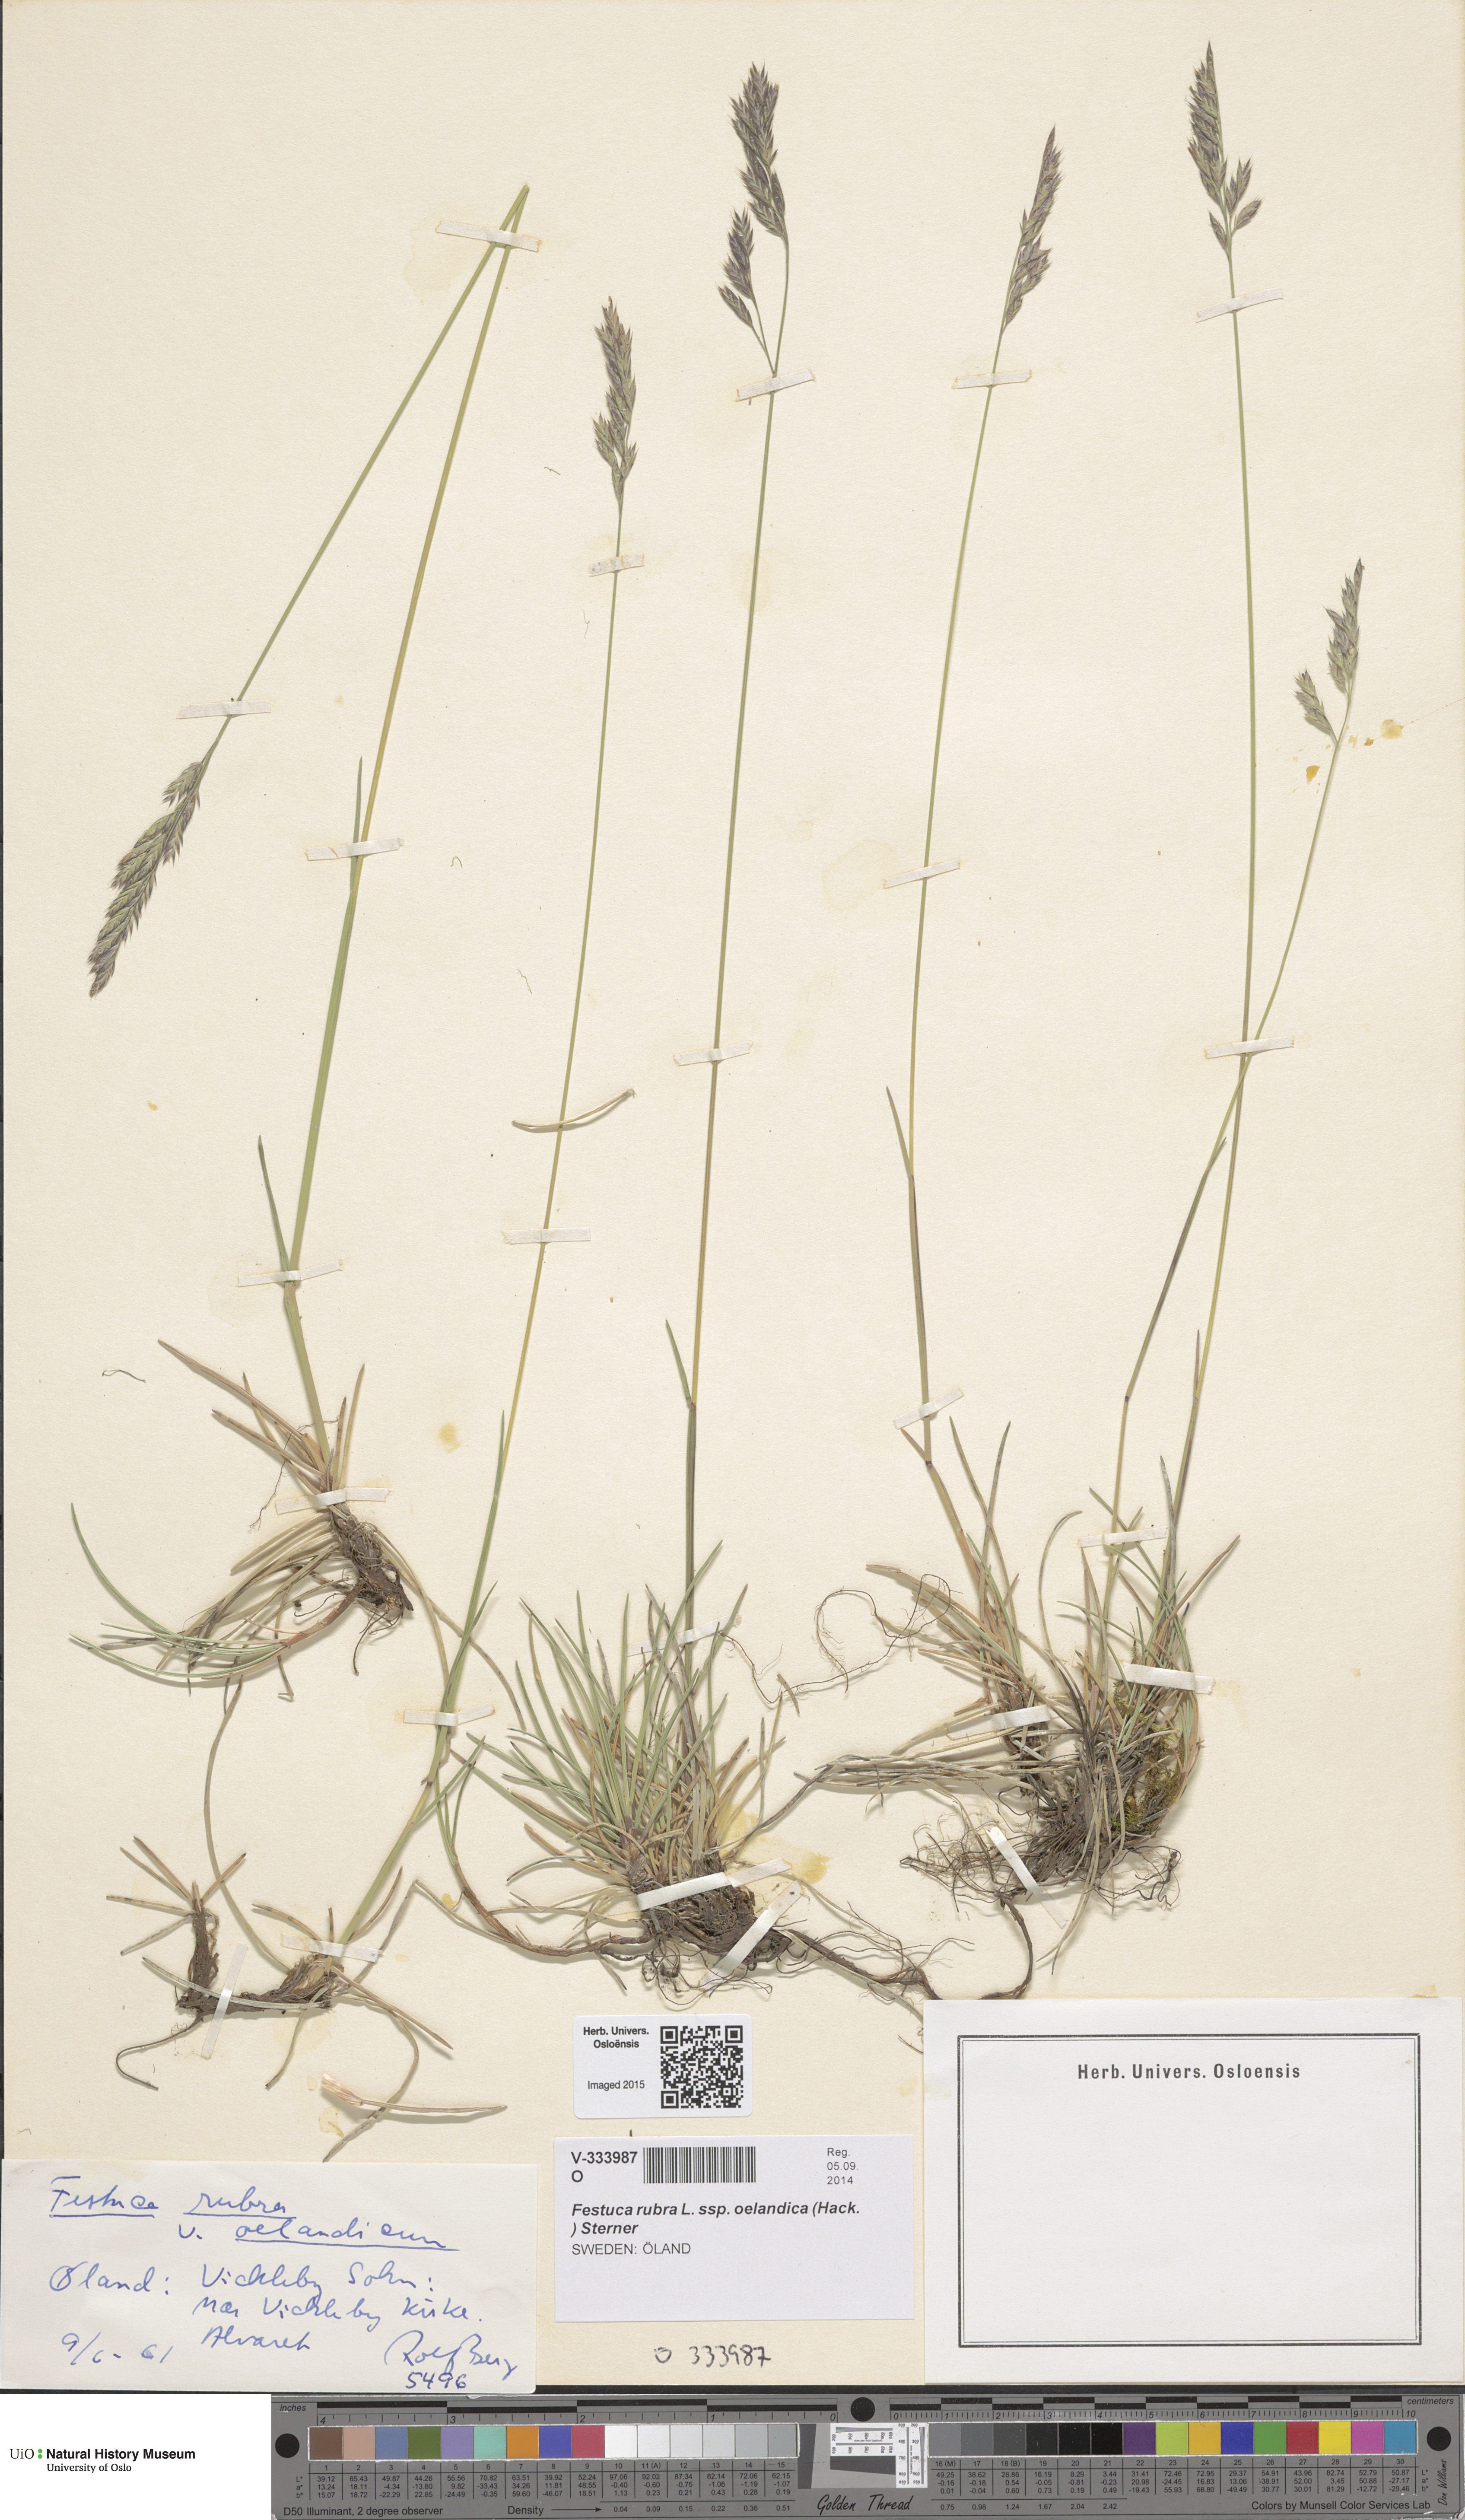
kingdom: Plantae
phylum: Tracheophyta
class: Liliopsida
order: Poales
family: Poaceae
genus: Festuca
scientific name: Festuca rubra
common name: Red fescue
